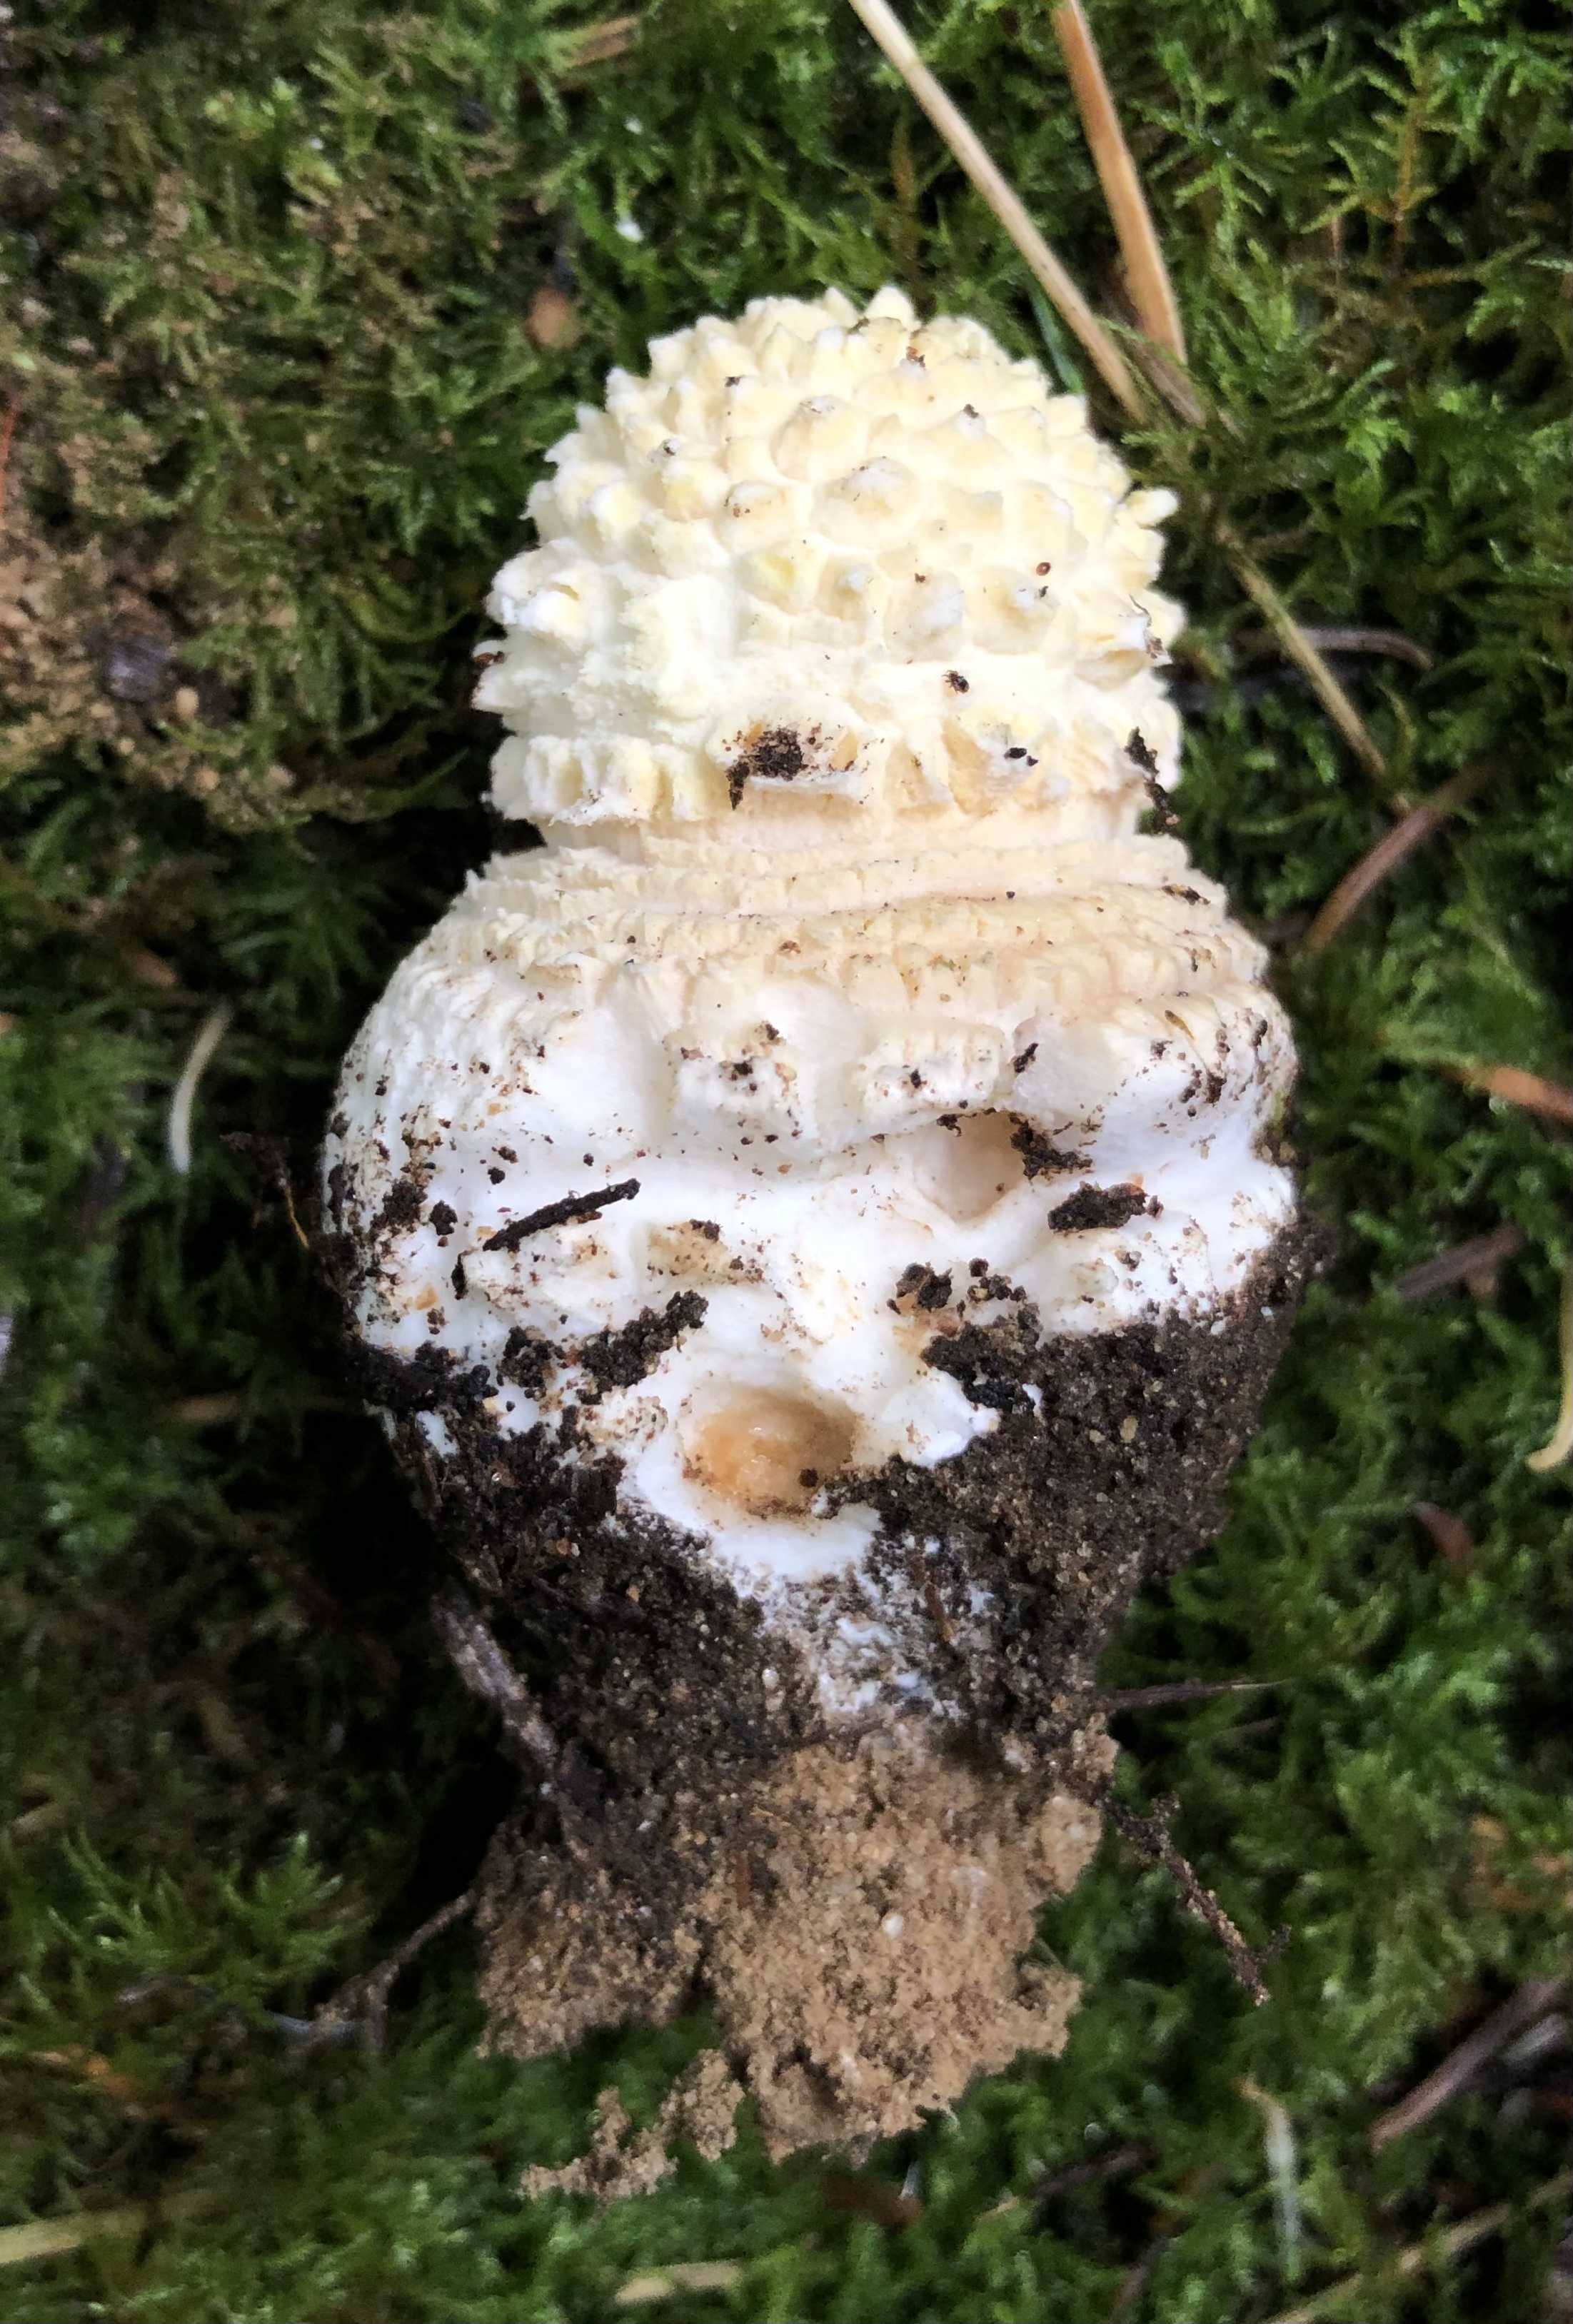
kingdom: Fungi
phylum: Basidiomycota
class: Agaricomycetes
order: Agaricales
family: Amanitaceae
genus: Amanita
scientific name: Amanita muscaria
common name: rød fluesvamp
